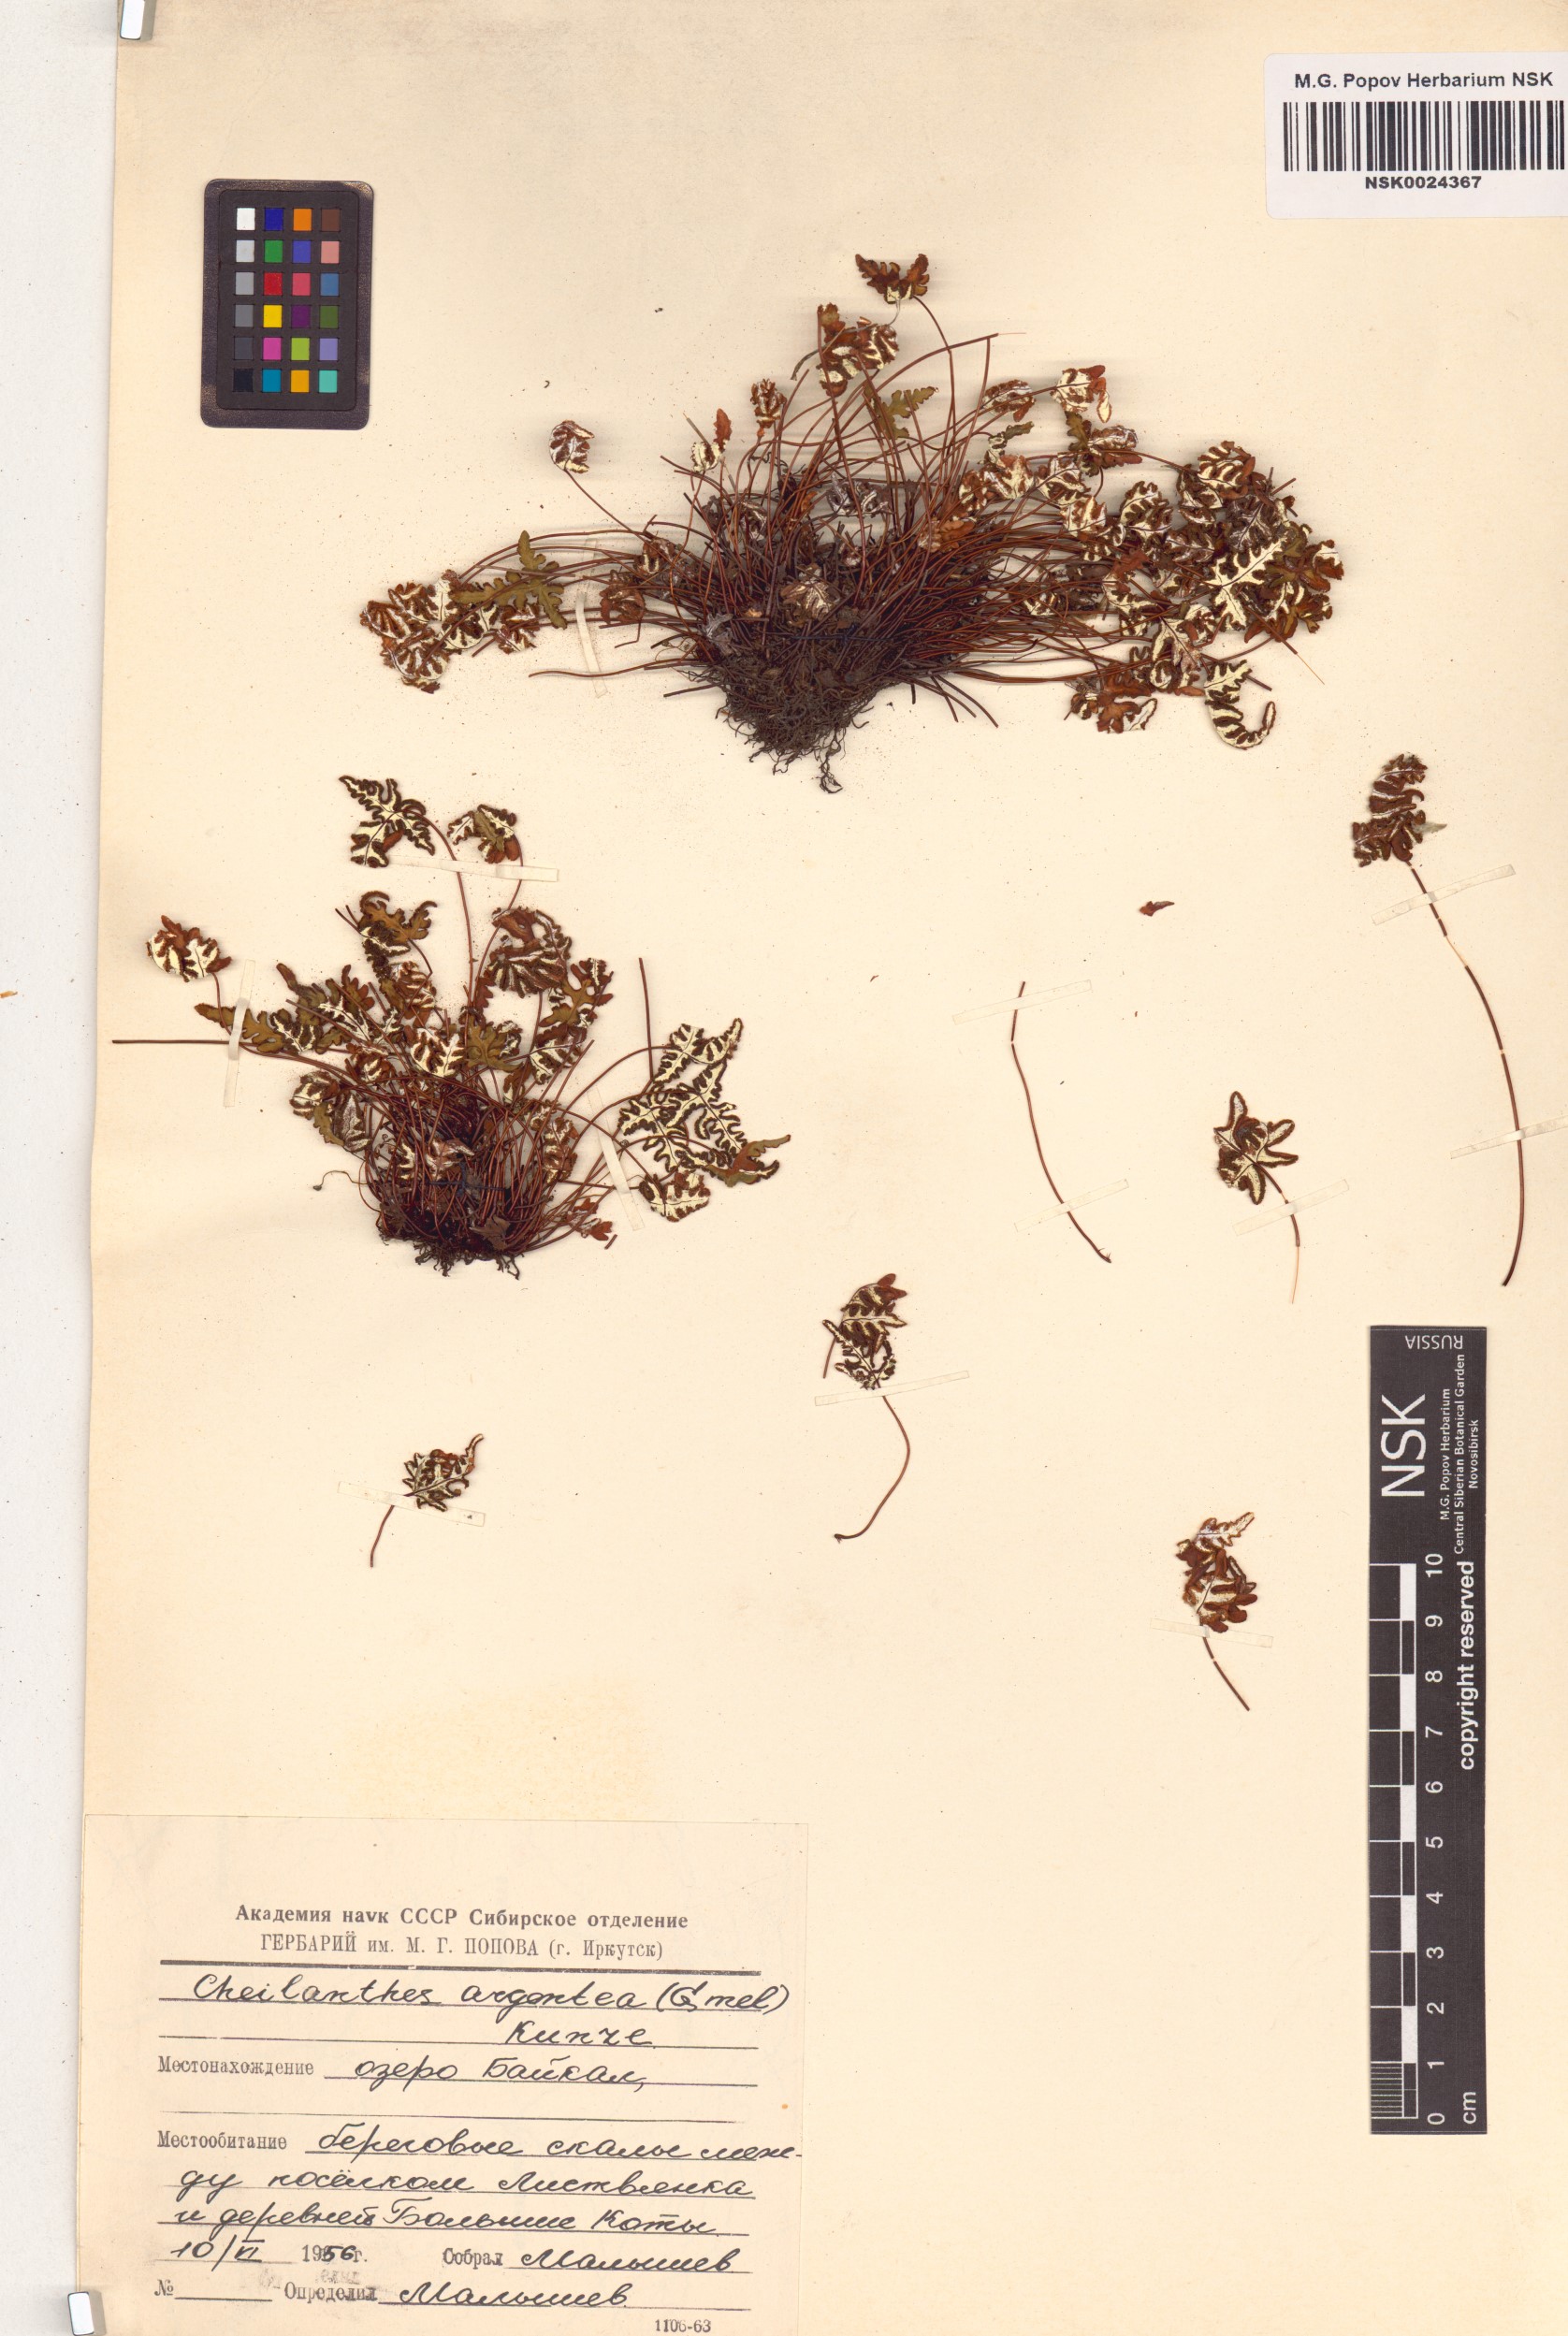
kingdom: Plantae
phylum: Tracheophyta
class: Polypodiopsida
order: Polypodiales
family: Pteridaceae
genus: Aleuritopteris
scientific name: Aleuritopteris argentea
